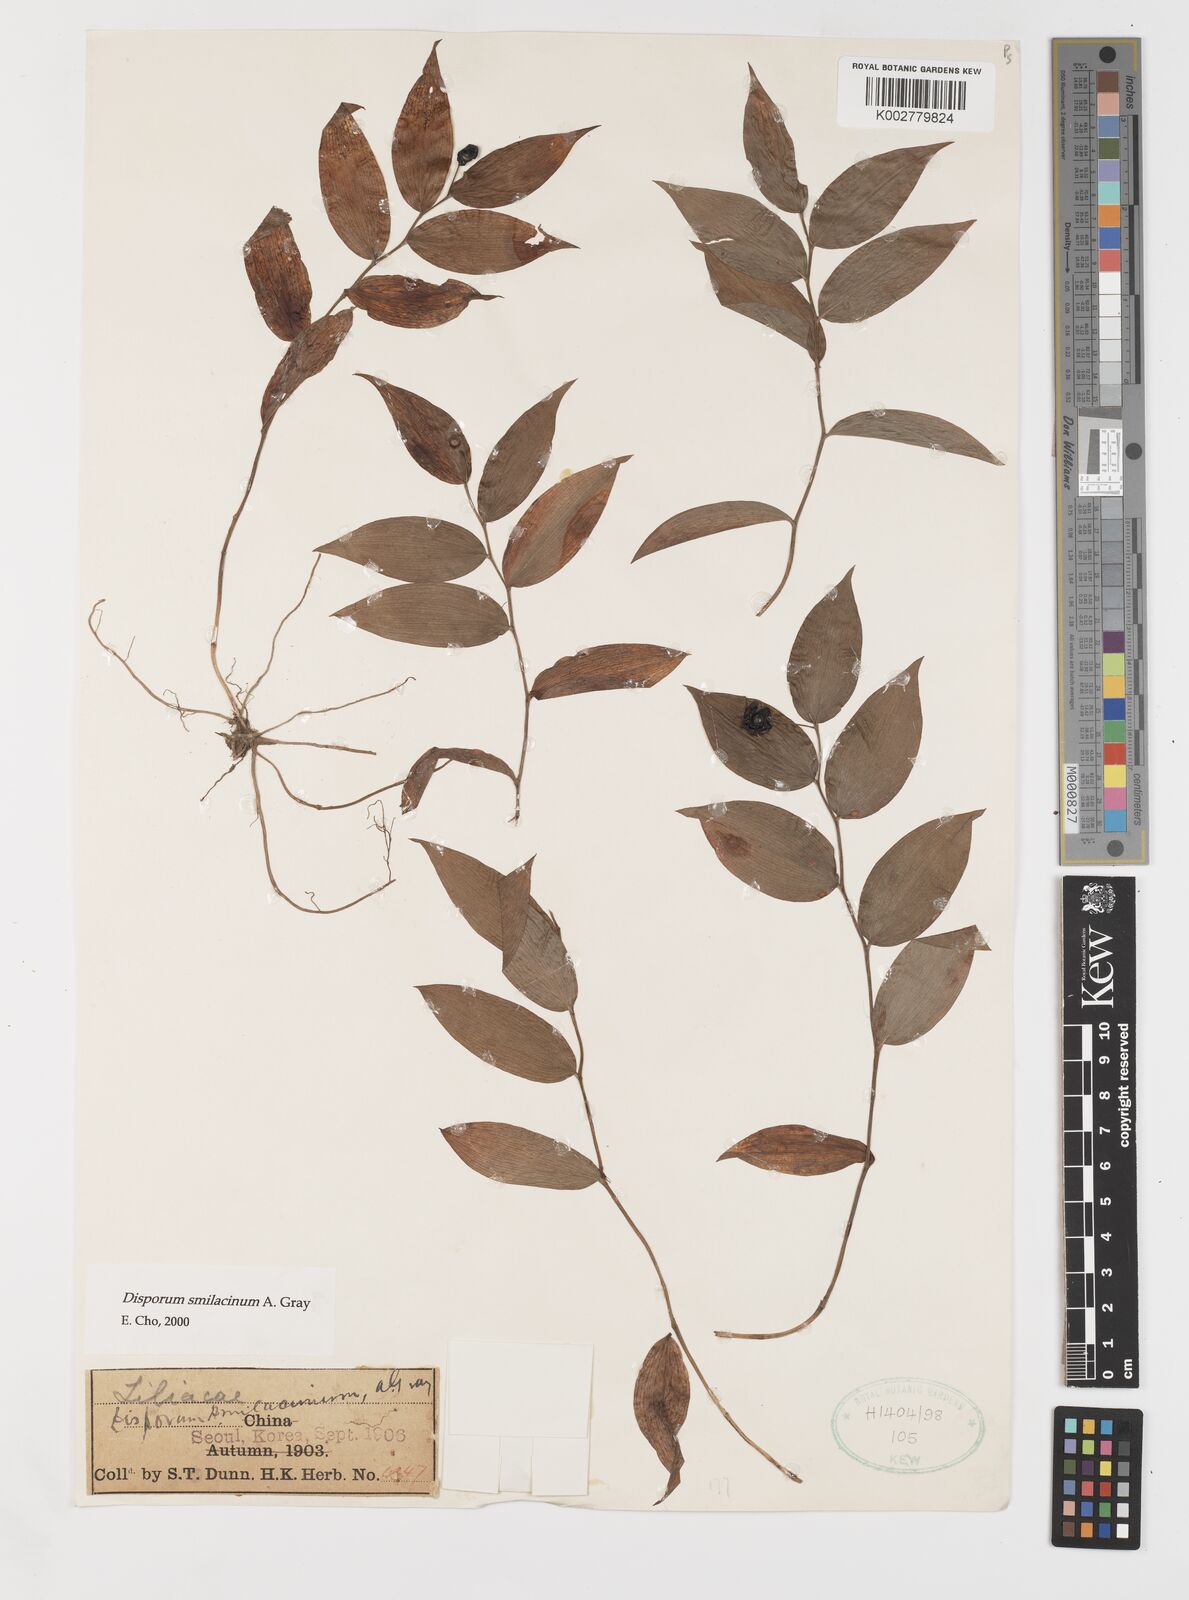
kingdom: Plantae
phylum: Tracheophyta
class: Liliopsida
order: Liliales
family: Colchicaceae
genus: Disporum
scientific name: Disporum smilacinum
